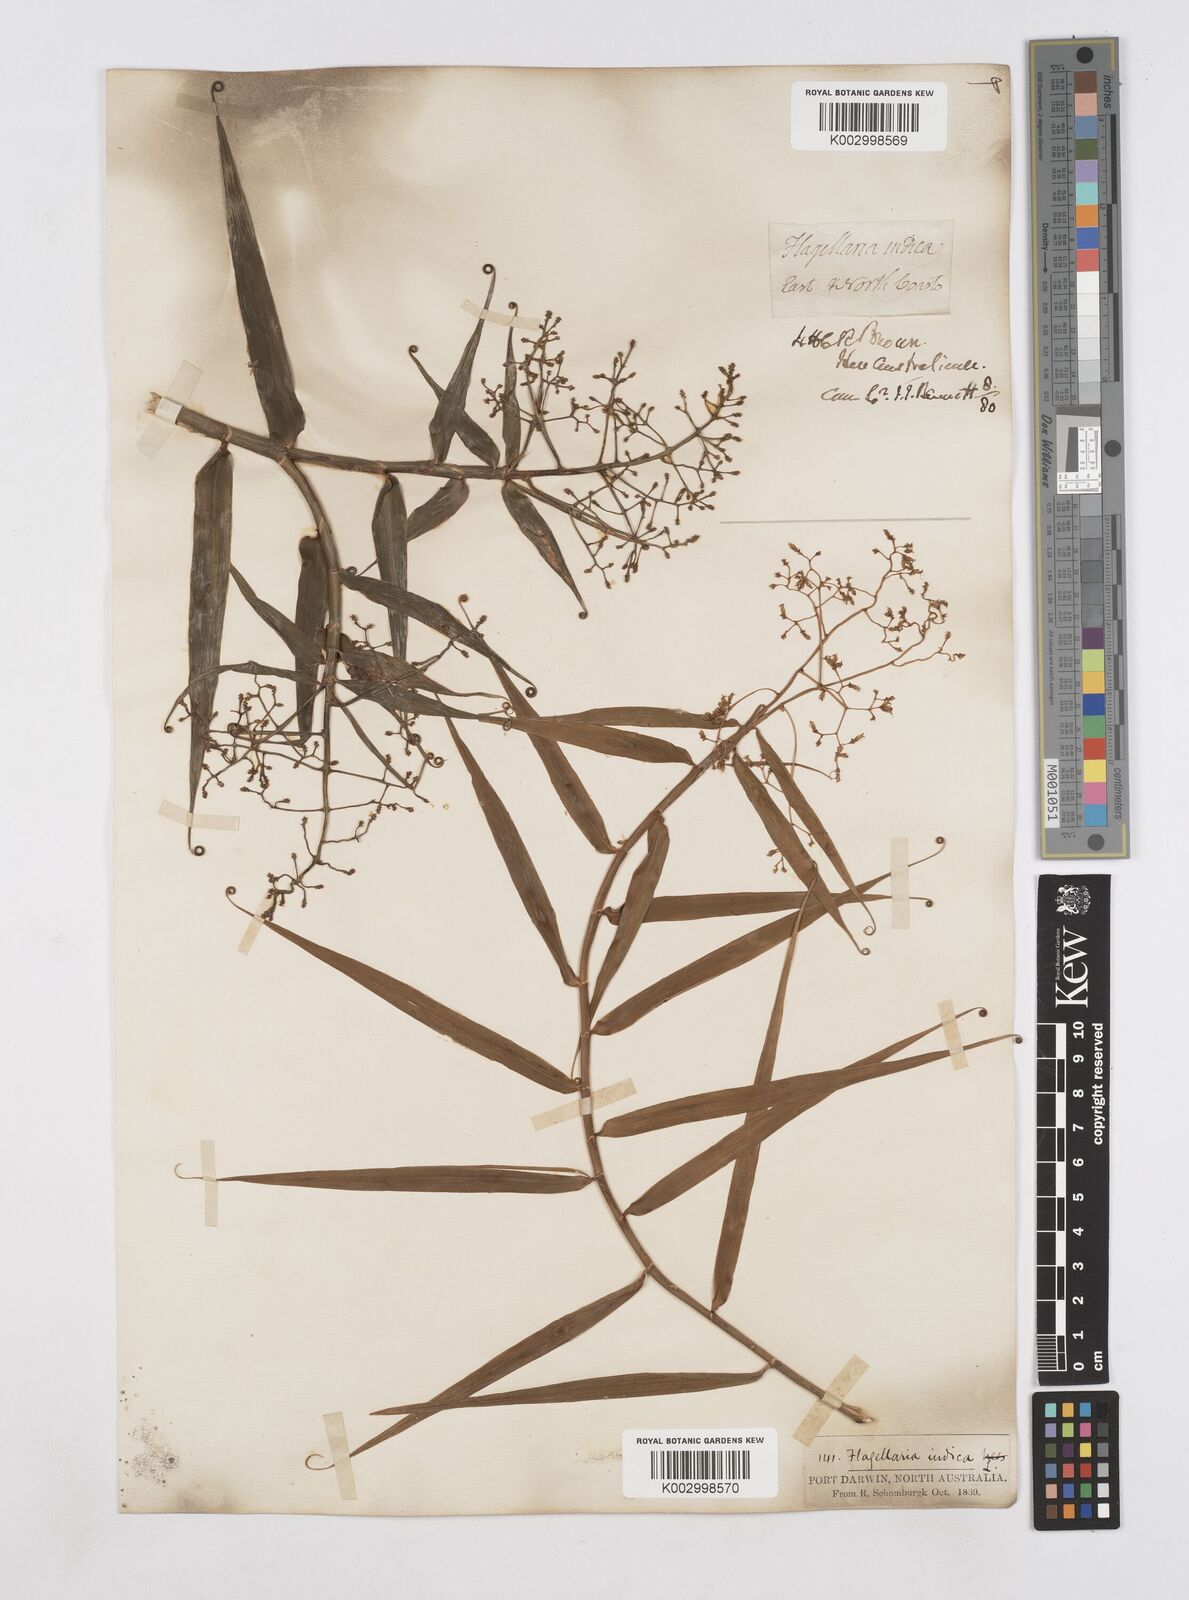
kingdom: Plantae
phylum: Tracheophyta
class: Liliopsida
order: Poales
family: Flagellariaceae
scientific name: Flagellariaceae
